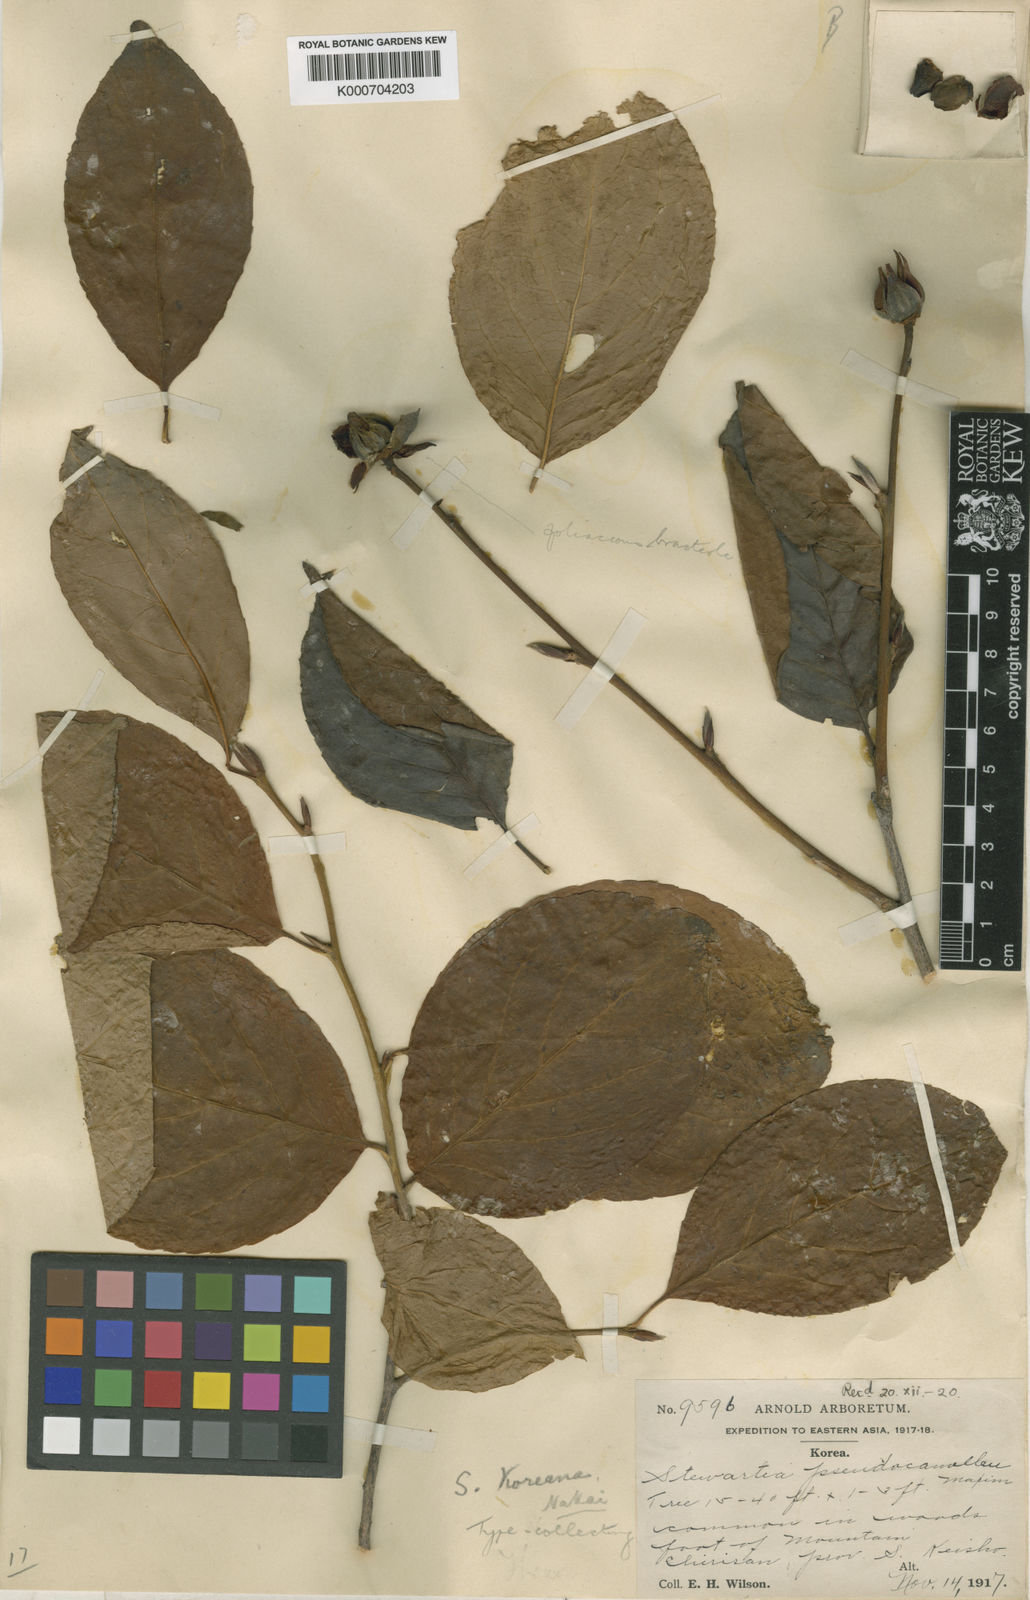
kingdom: Plantae
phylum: Tracheophyta
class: Magnoliopsida
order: Ericales
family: Theaceae
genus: Stewartia
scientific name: Stewartia pseudocamellia
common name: Japanese stewartia
